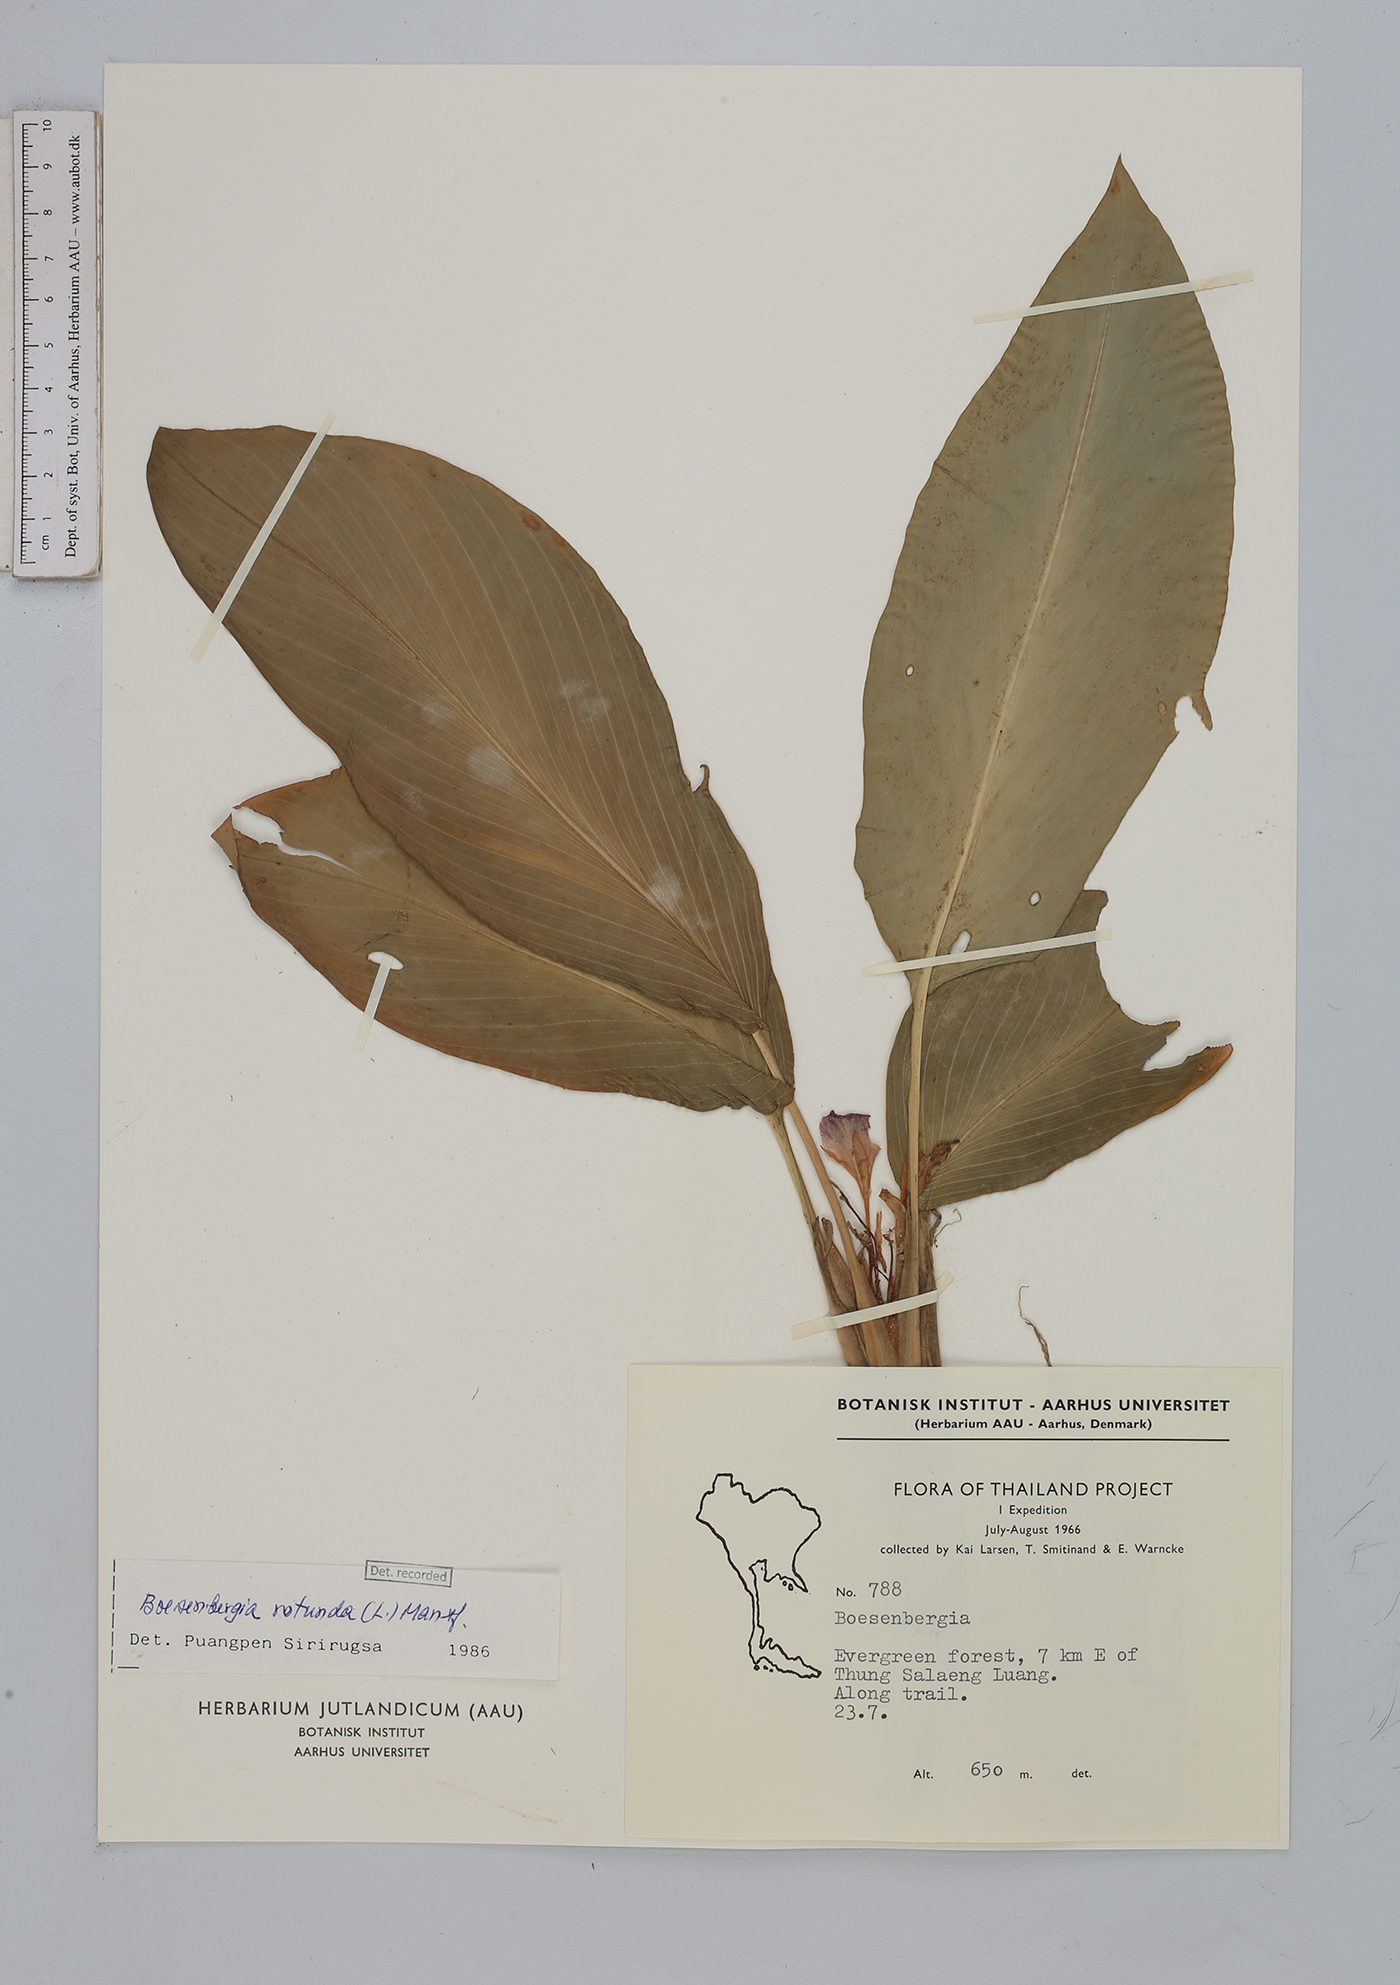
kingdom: Plantae
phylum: Tracheophyta
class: Liliopsida
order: Zingiberales
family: Zingiberaceae
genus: Boesenbergia
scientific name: Boesenbergia rotunda
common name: Chinese ginger
